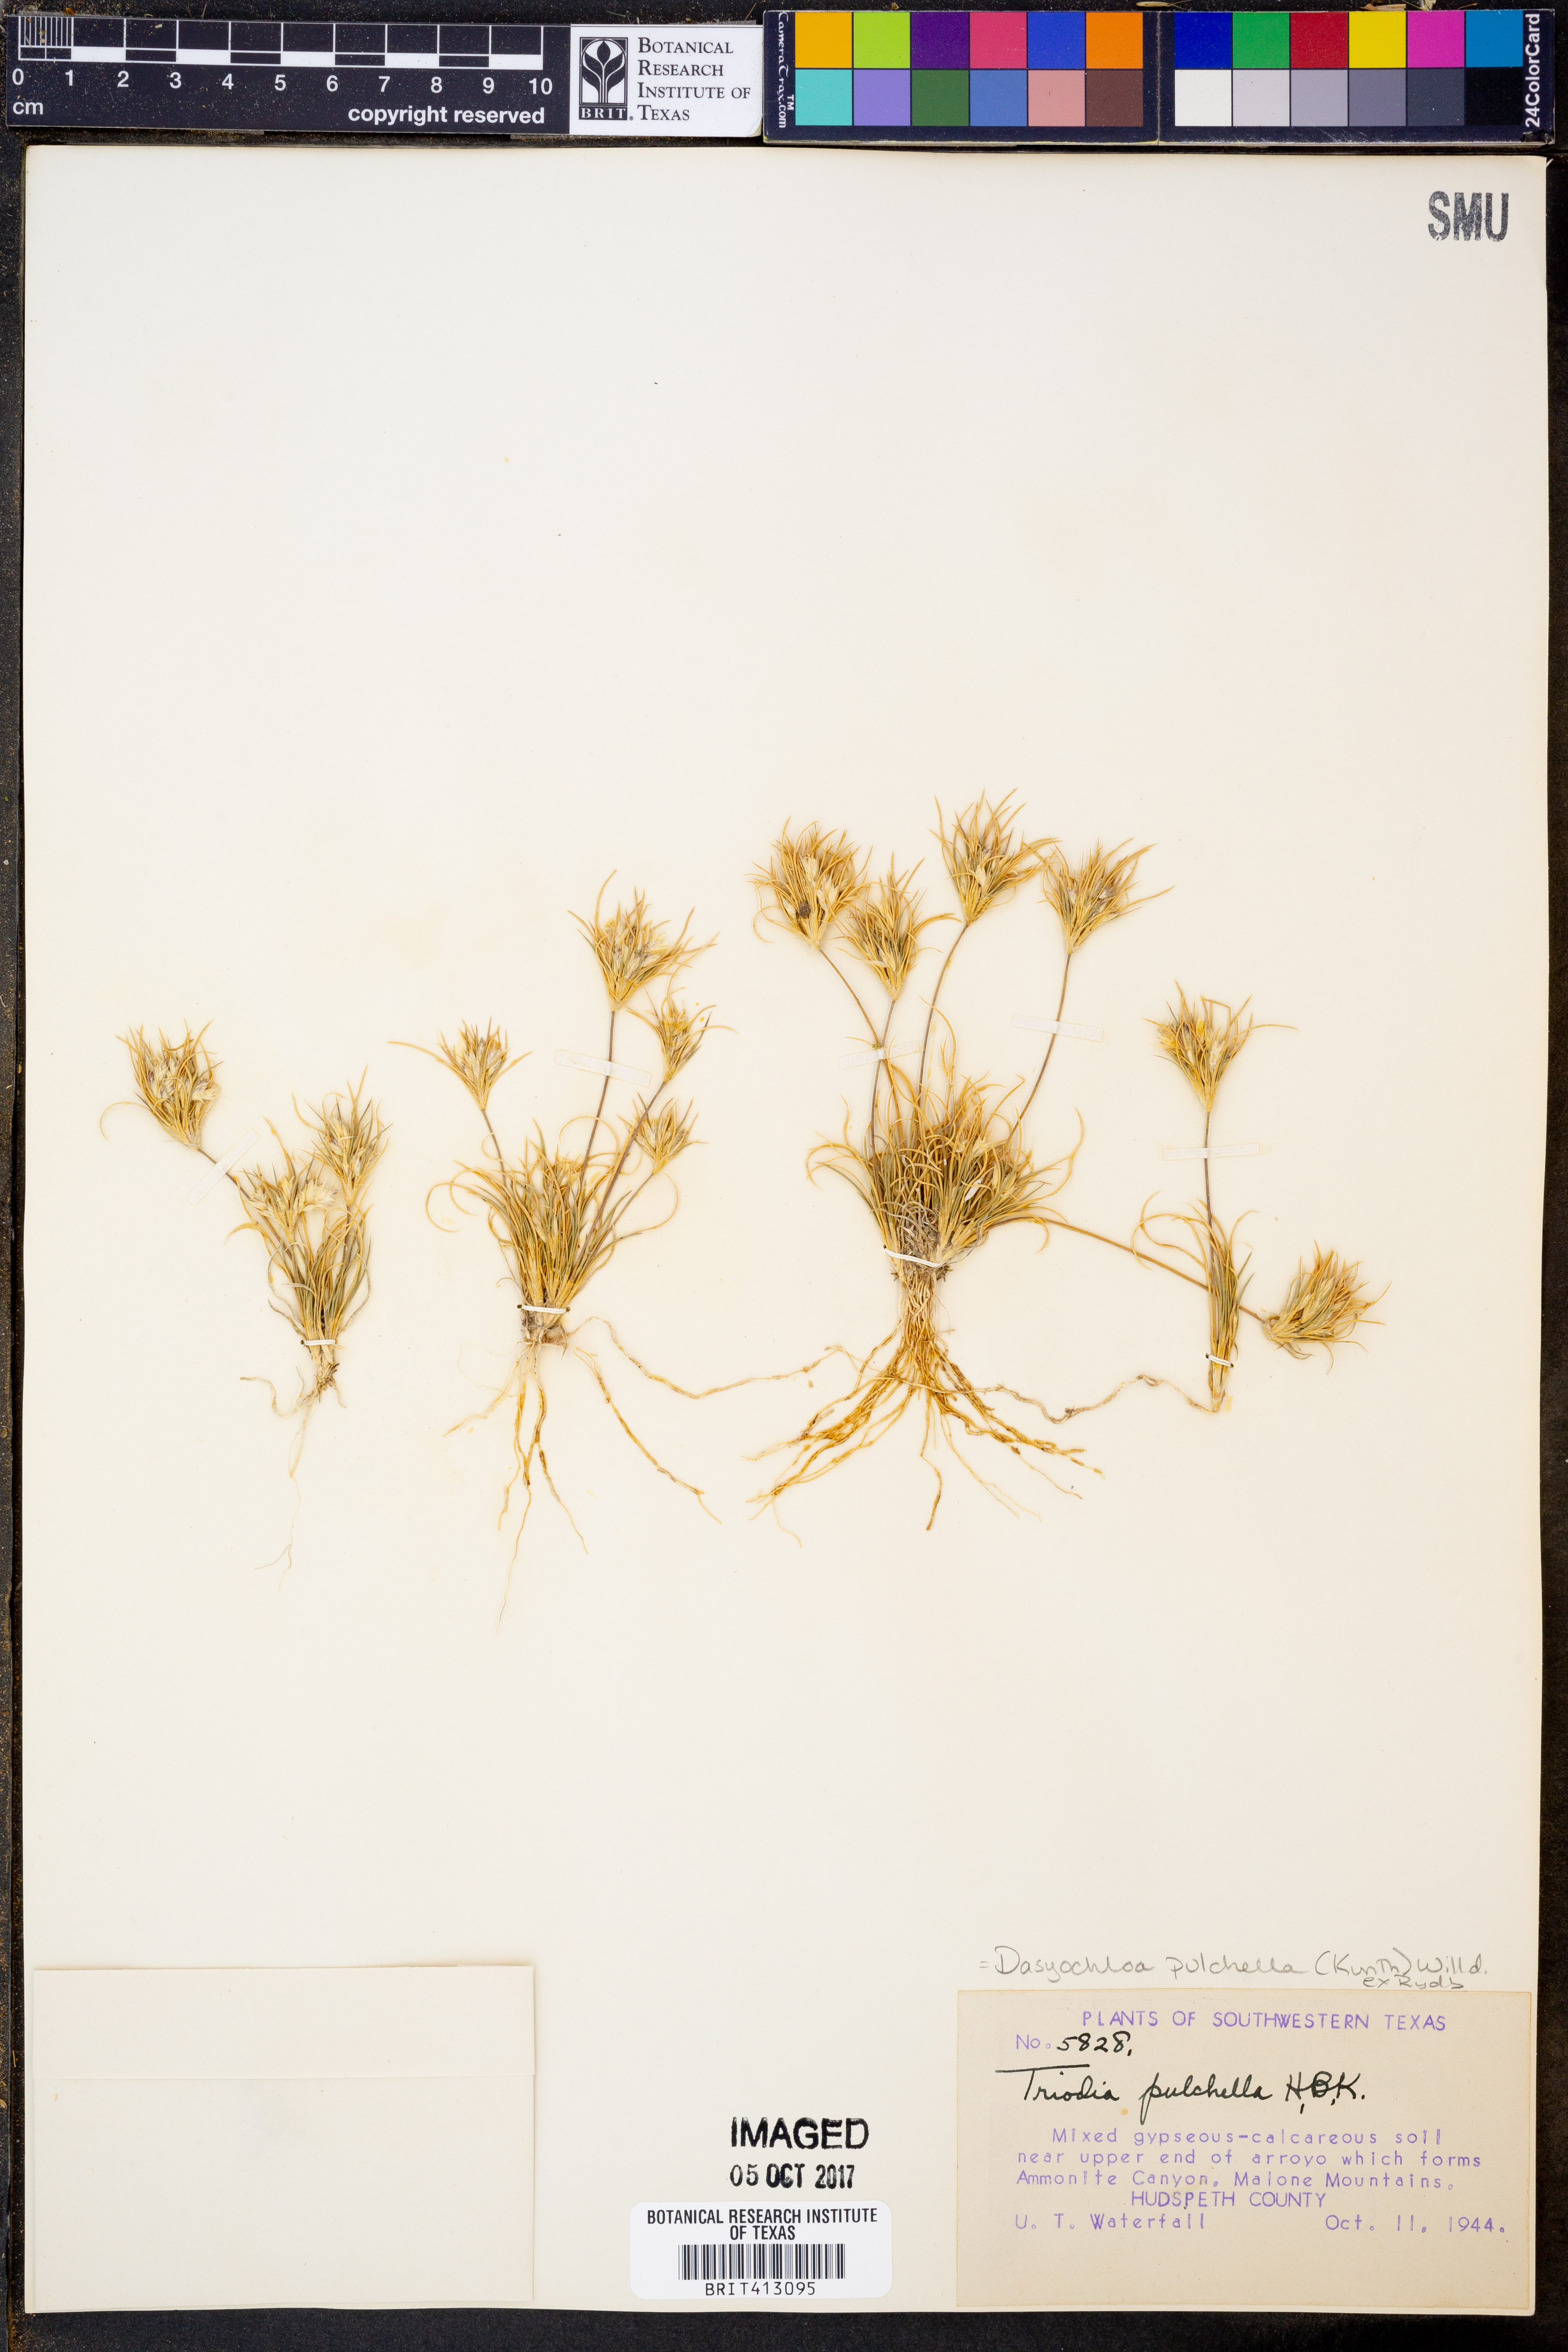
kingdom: Plantae
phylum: Tracheophyta
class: Liliopsida
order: Poales
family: Poaceae
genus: Munroa
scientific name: Munroa pulchella
